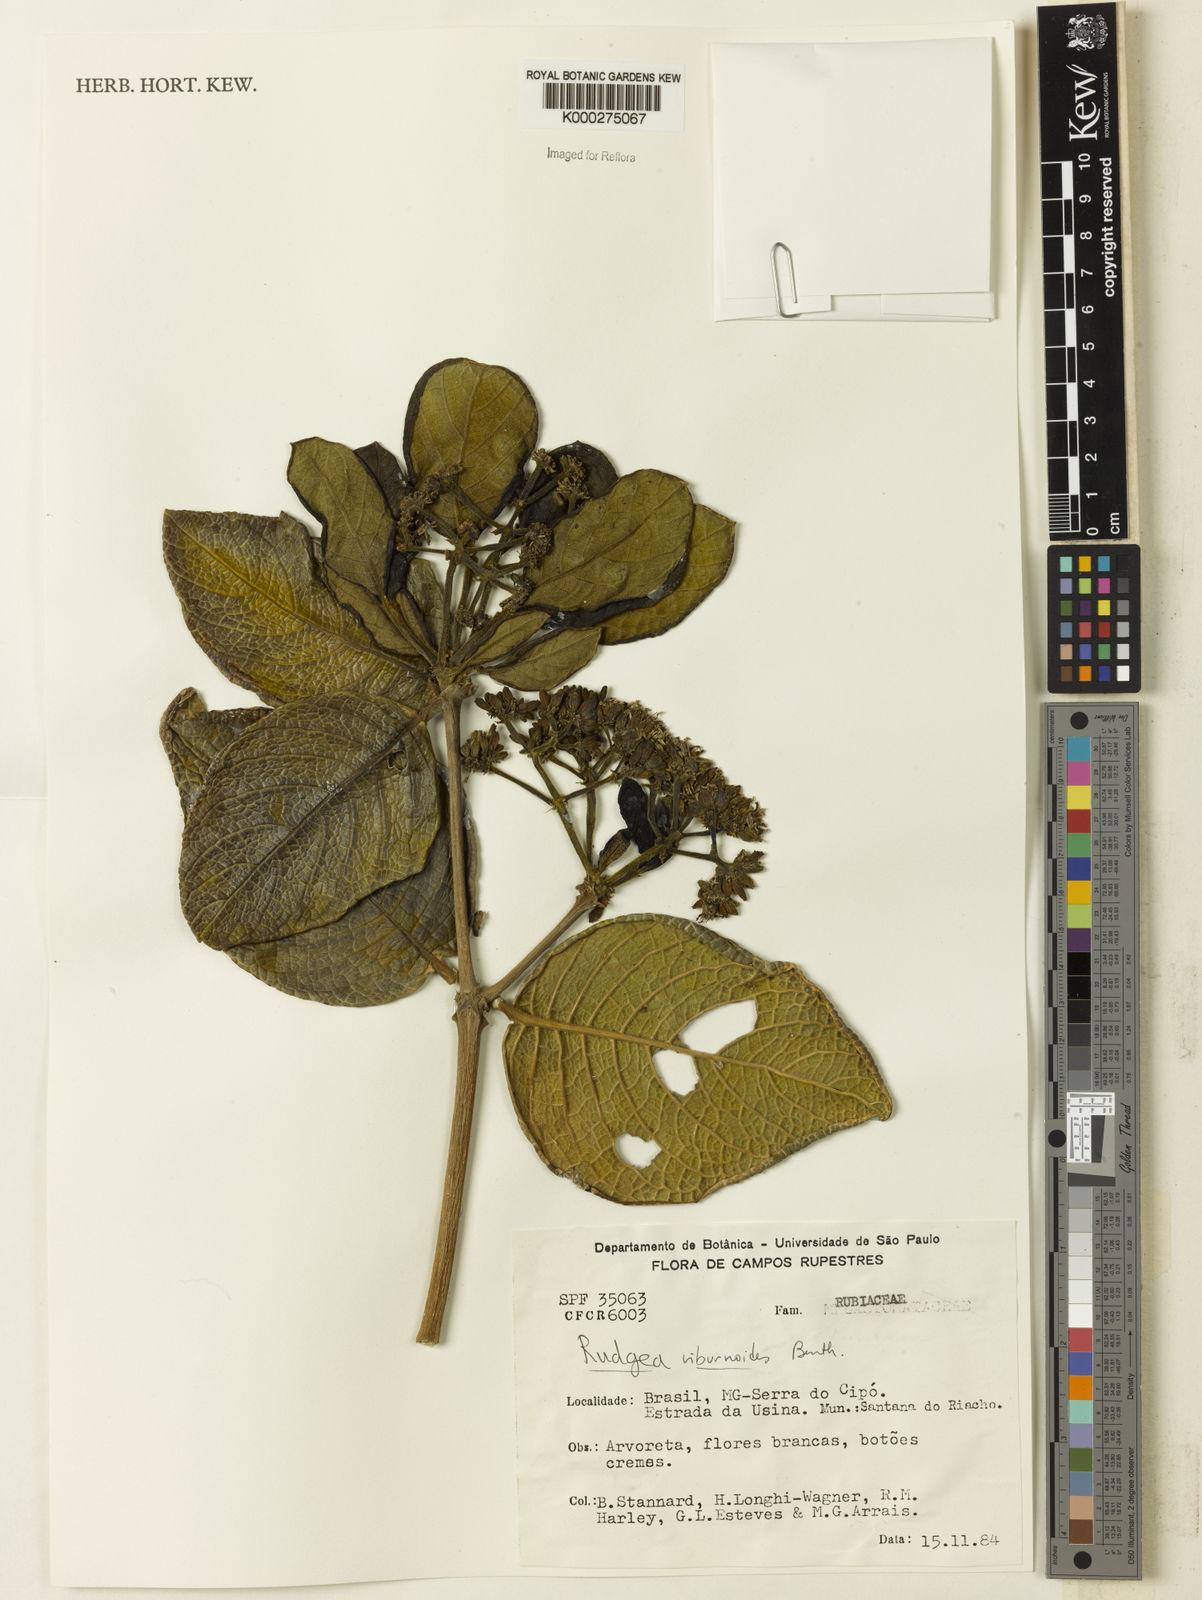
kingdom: Plantae
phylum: Tracheophyta
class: Magnoliopsida
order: Gentianales
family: Rubiaceae
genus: Rudgea
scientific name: Rudgea viburnoides
